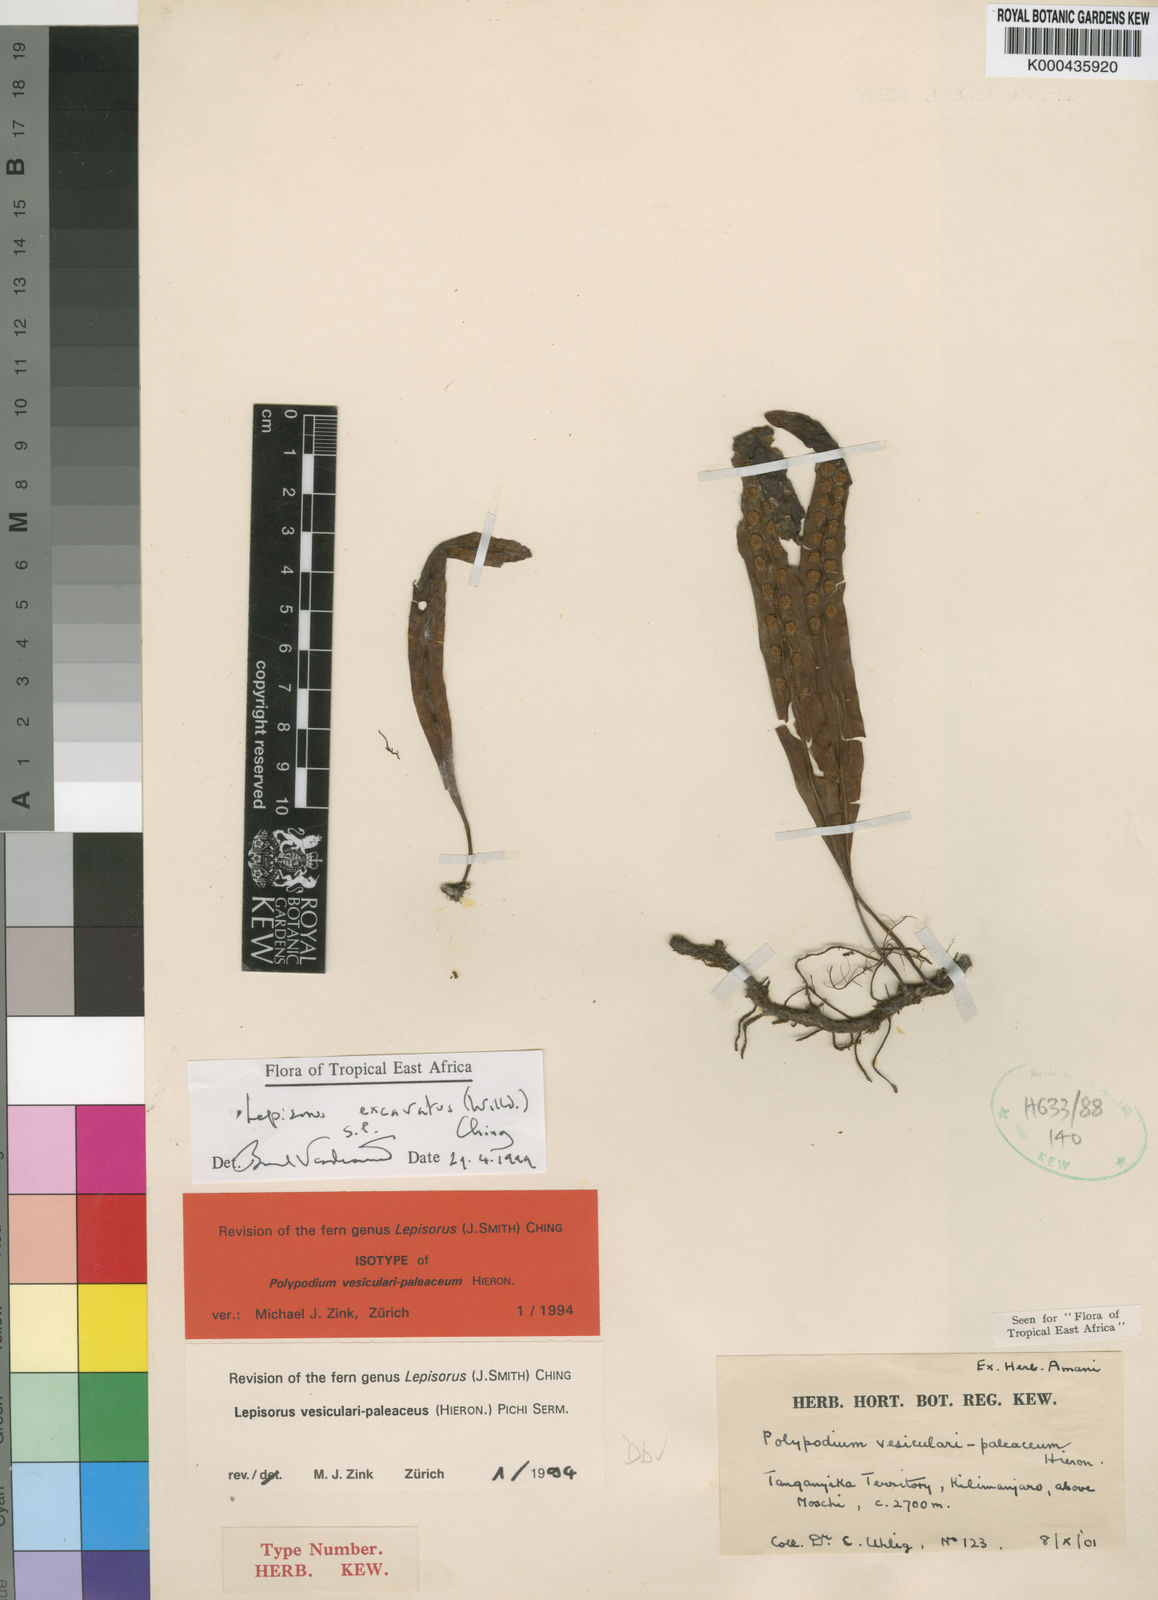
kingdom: Plantae
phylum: Tracheophyta
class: Polypodiopsida
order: Polypodiales
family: Polypodiaceae
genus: Lepisorus
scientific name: Lepisorus excavatus
